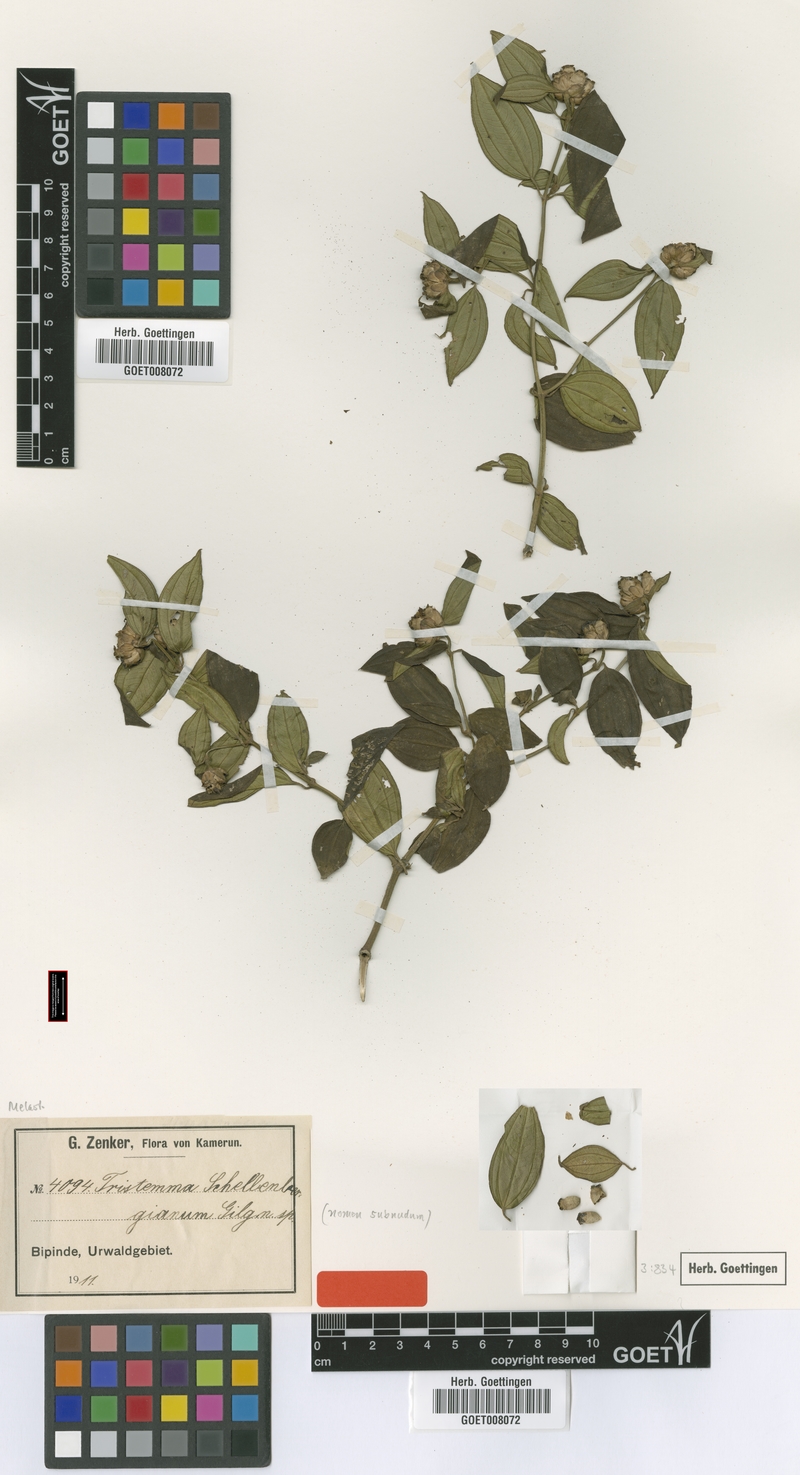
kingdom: Plantae
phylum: Tracheophyta
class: Magnoliopsida
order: Myrtales
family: Melastomataceae
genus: Tristemma
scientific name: Tristemma oreophilum
